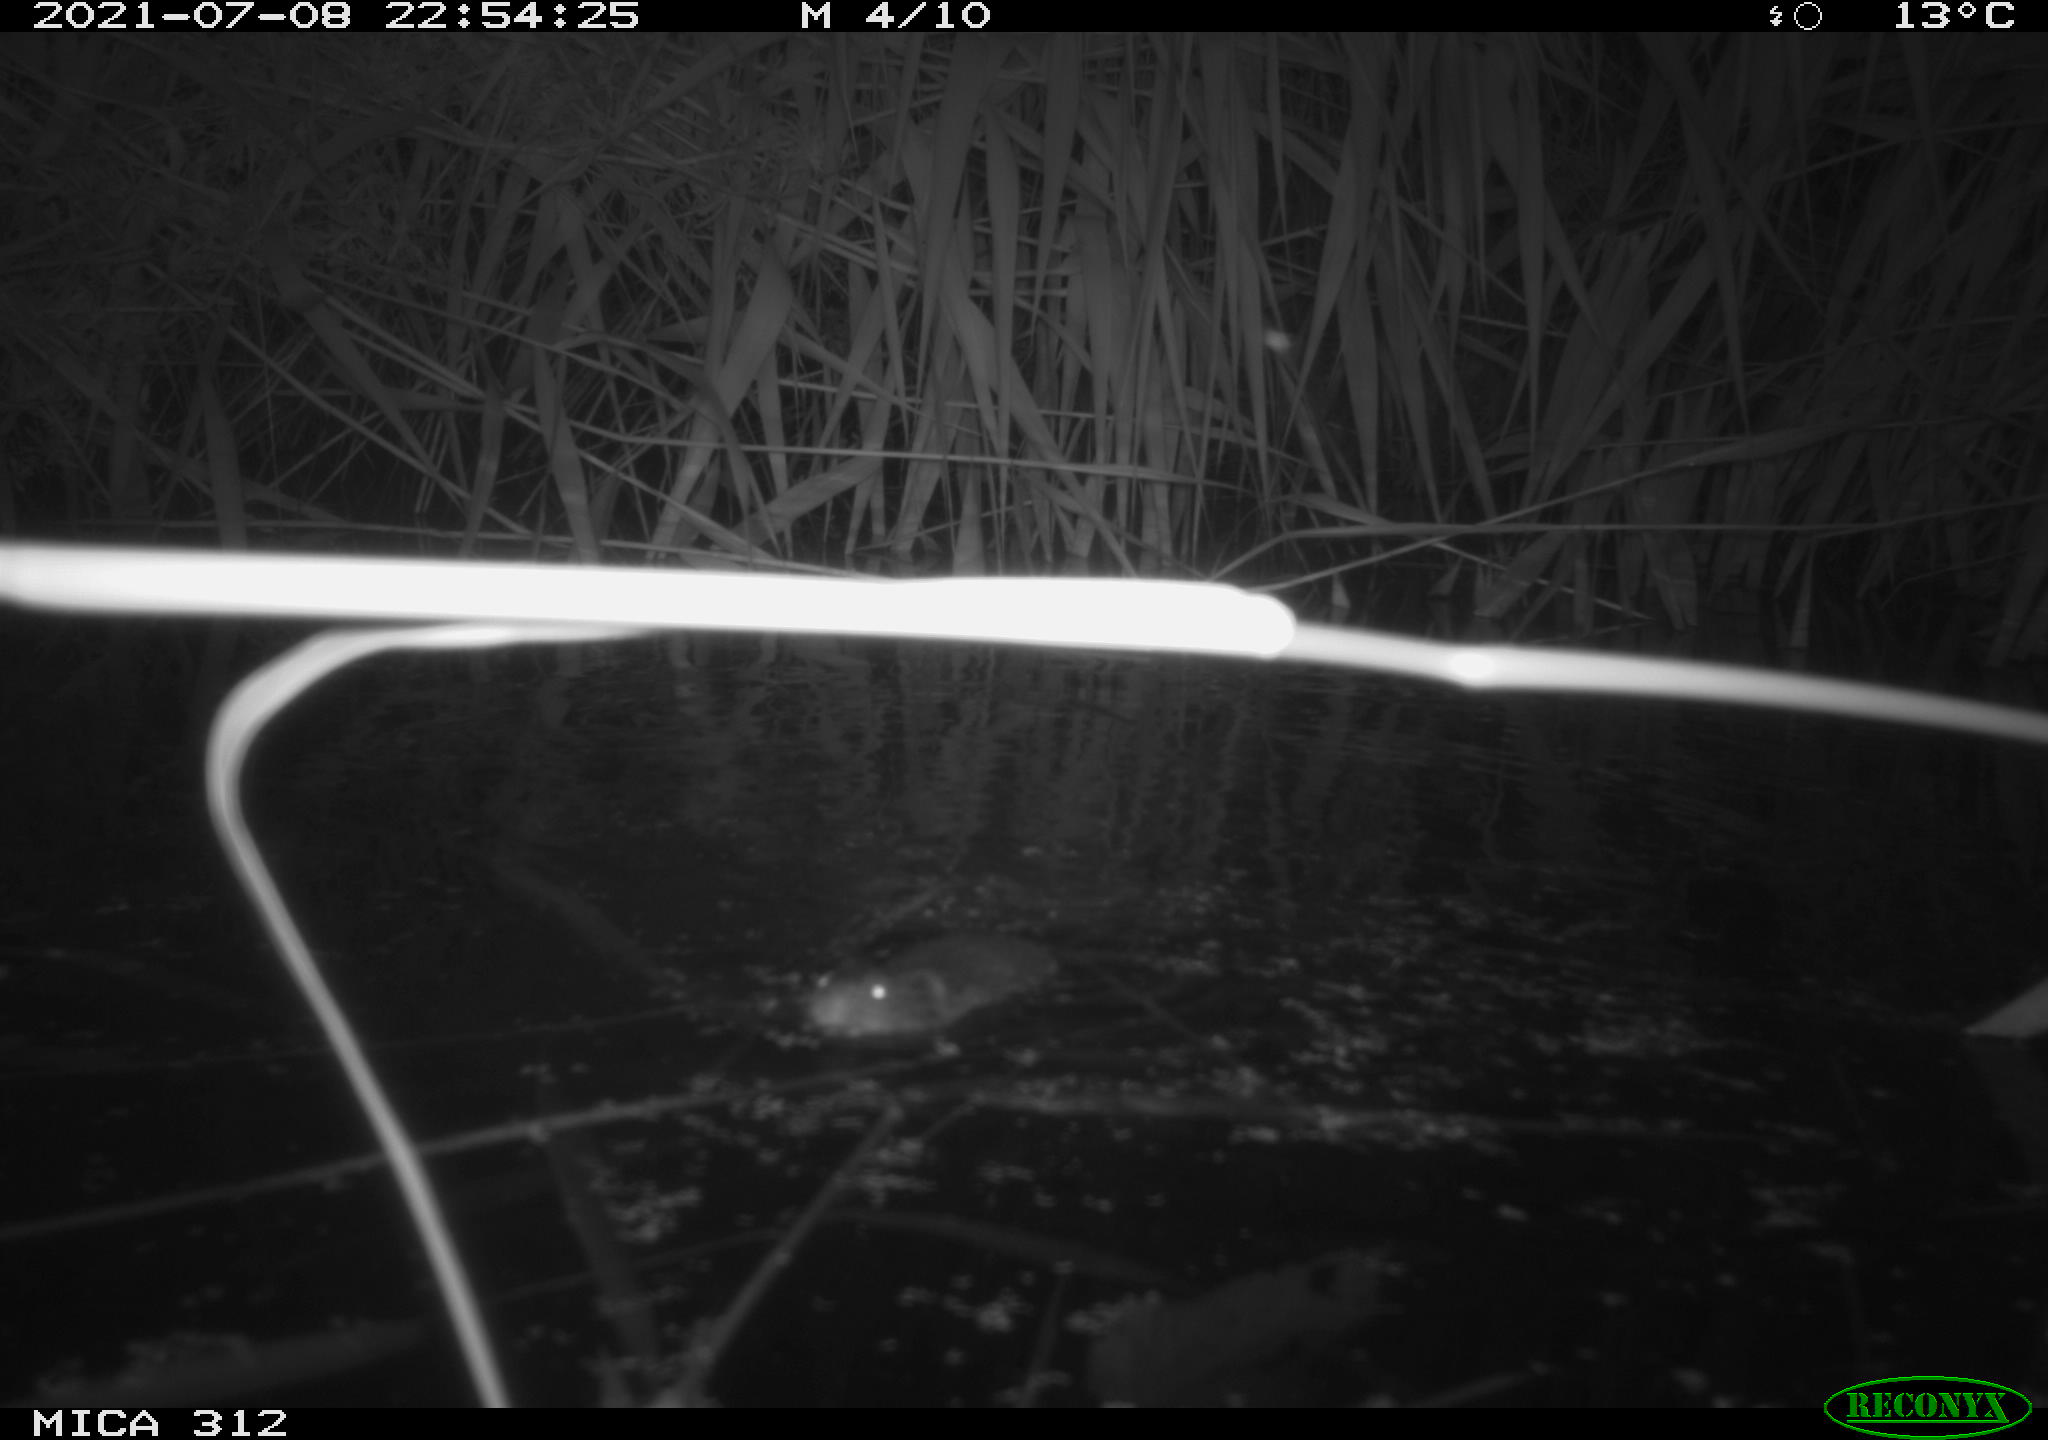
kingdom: Animalia
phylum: Chordata
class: Mammalia
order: Rodentia
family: Muridae
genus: Rattus
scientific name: Rattus norvegicus
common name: Brown rat
